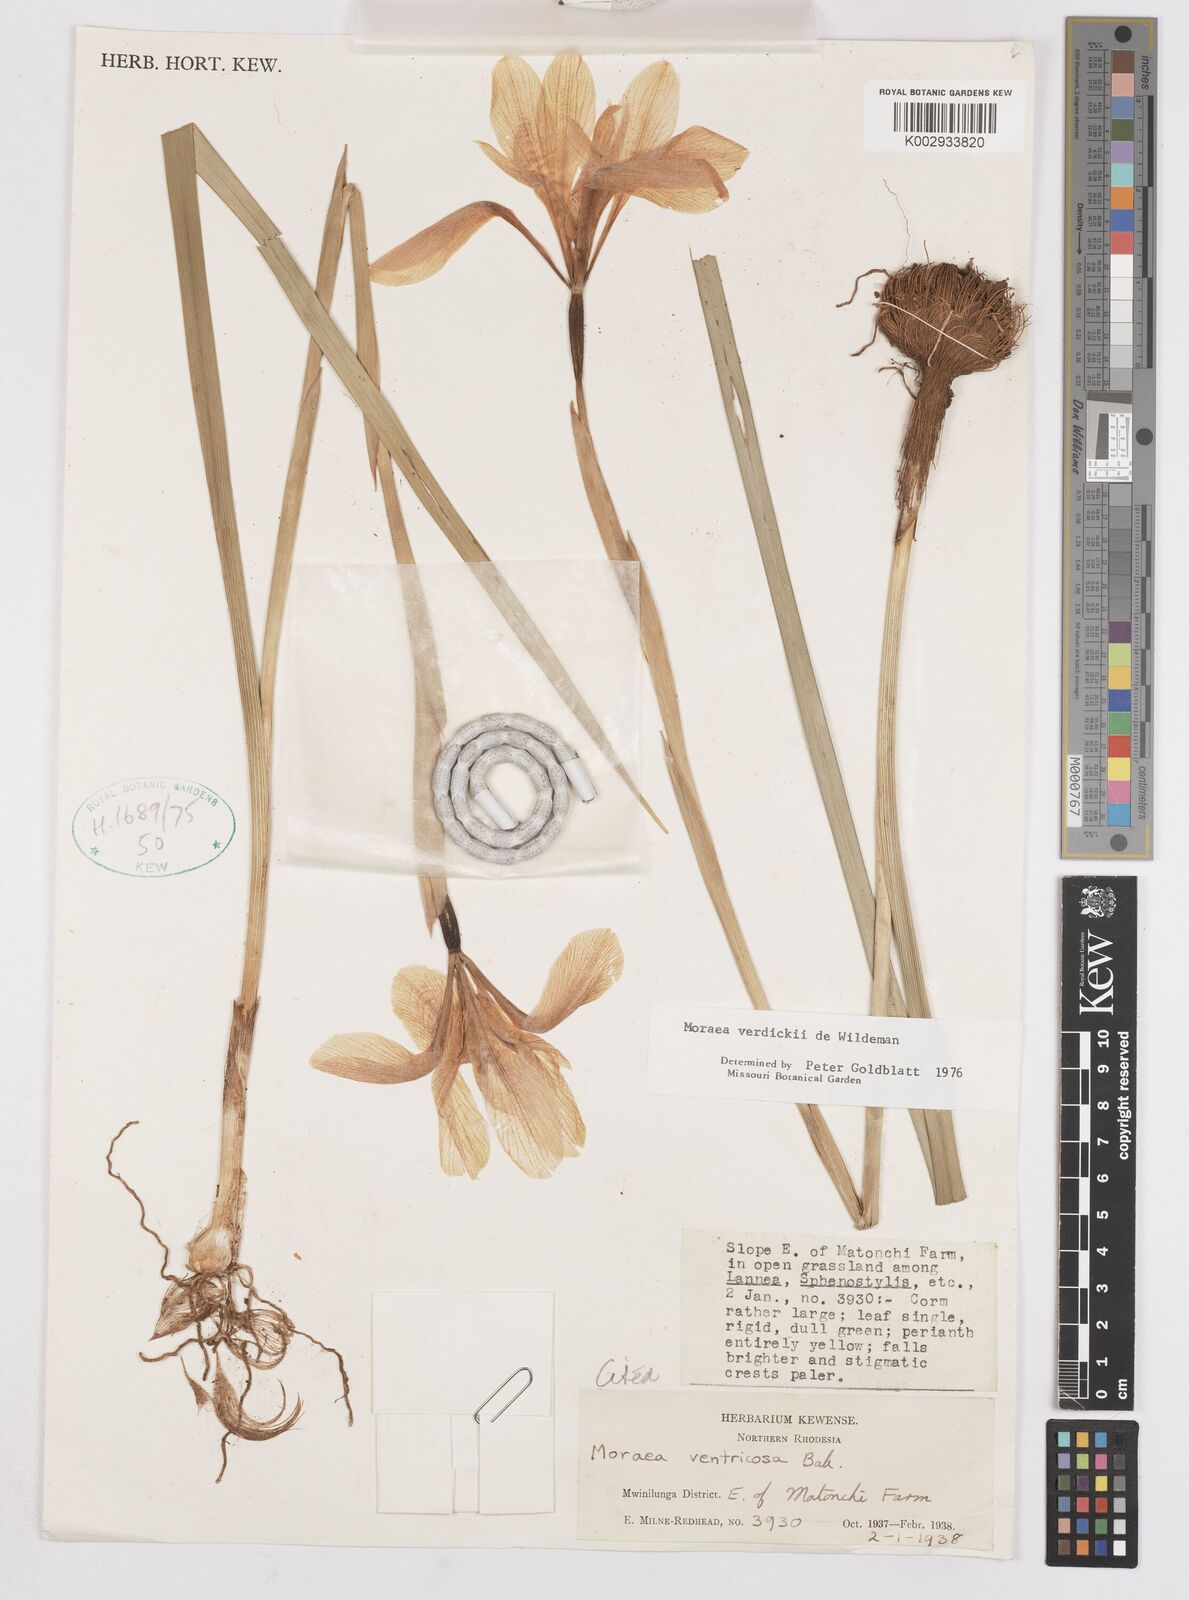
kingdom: Plantae
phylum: Tracheophyta
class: Liliopsida
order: Asparagales
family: Iridaceae
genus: Moraea
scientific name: Moraea verdickii
